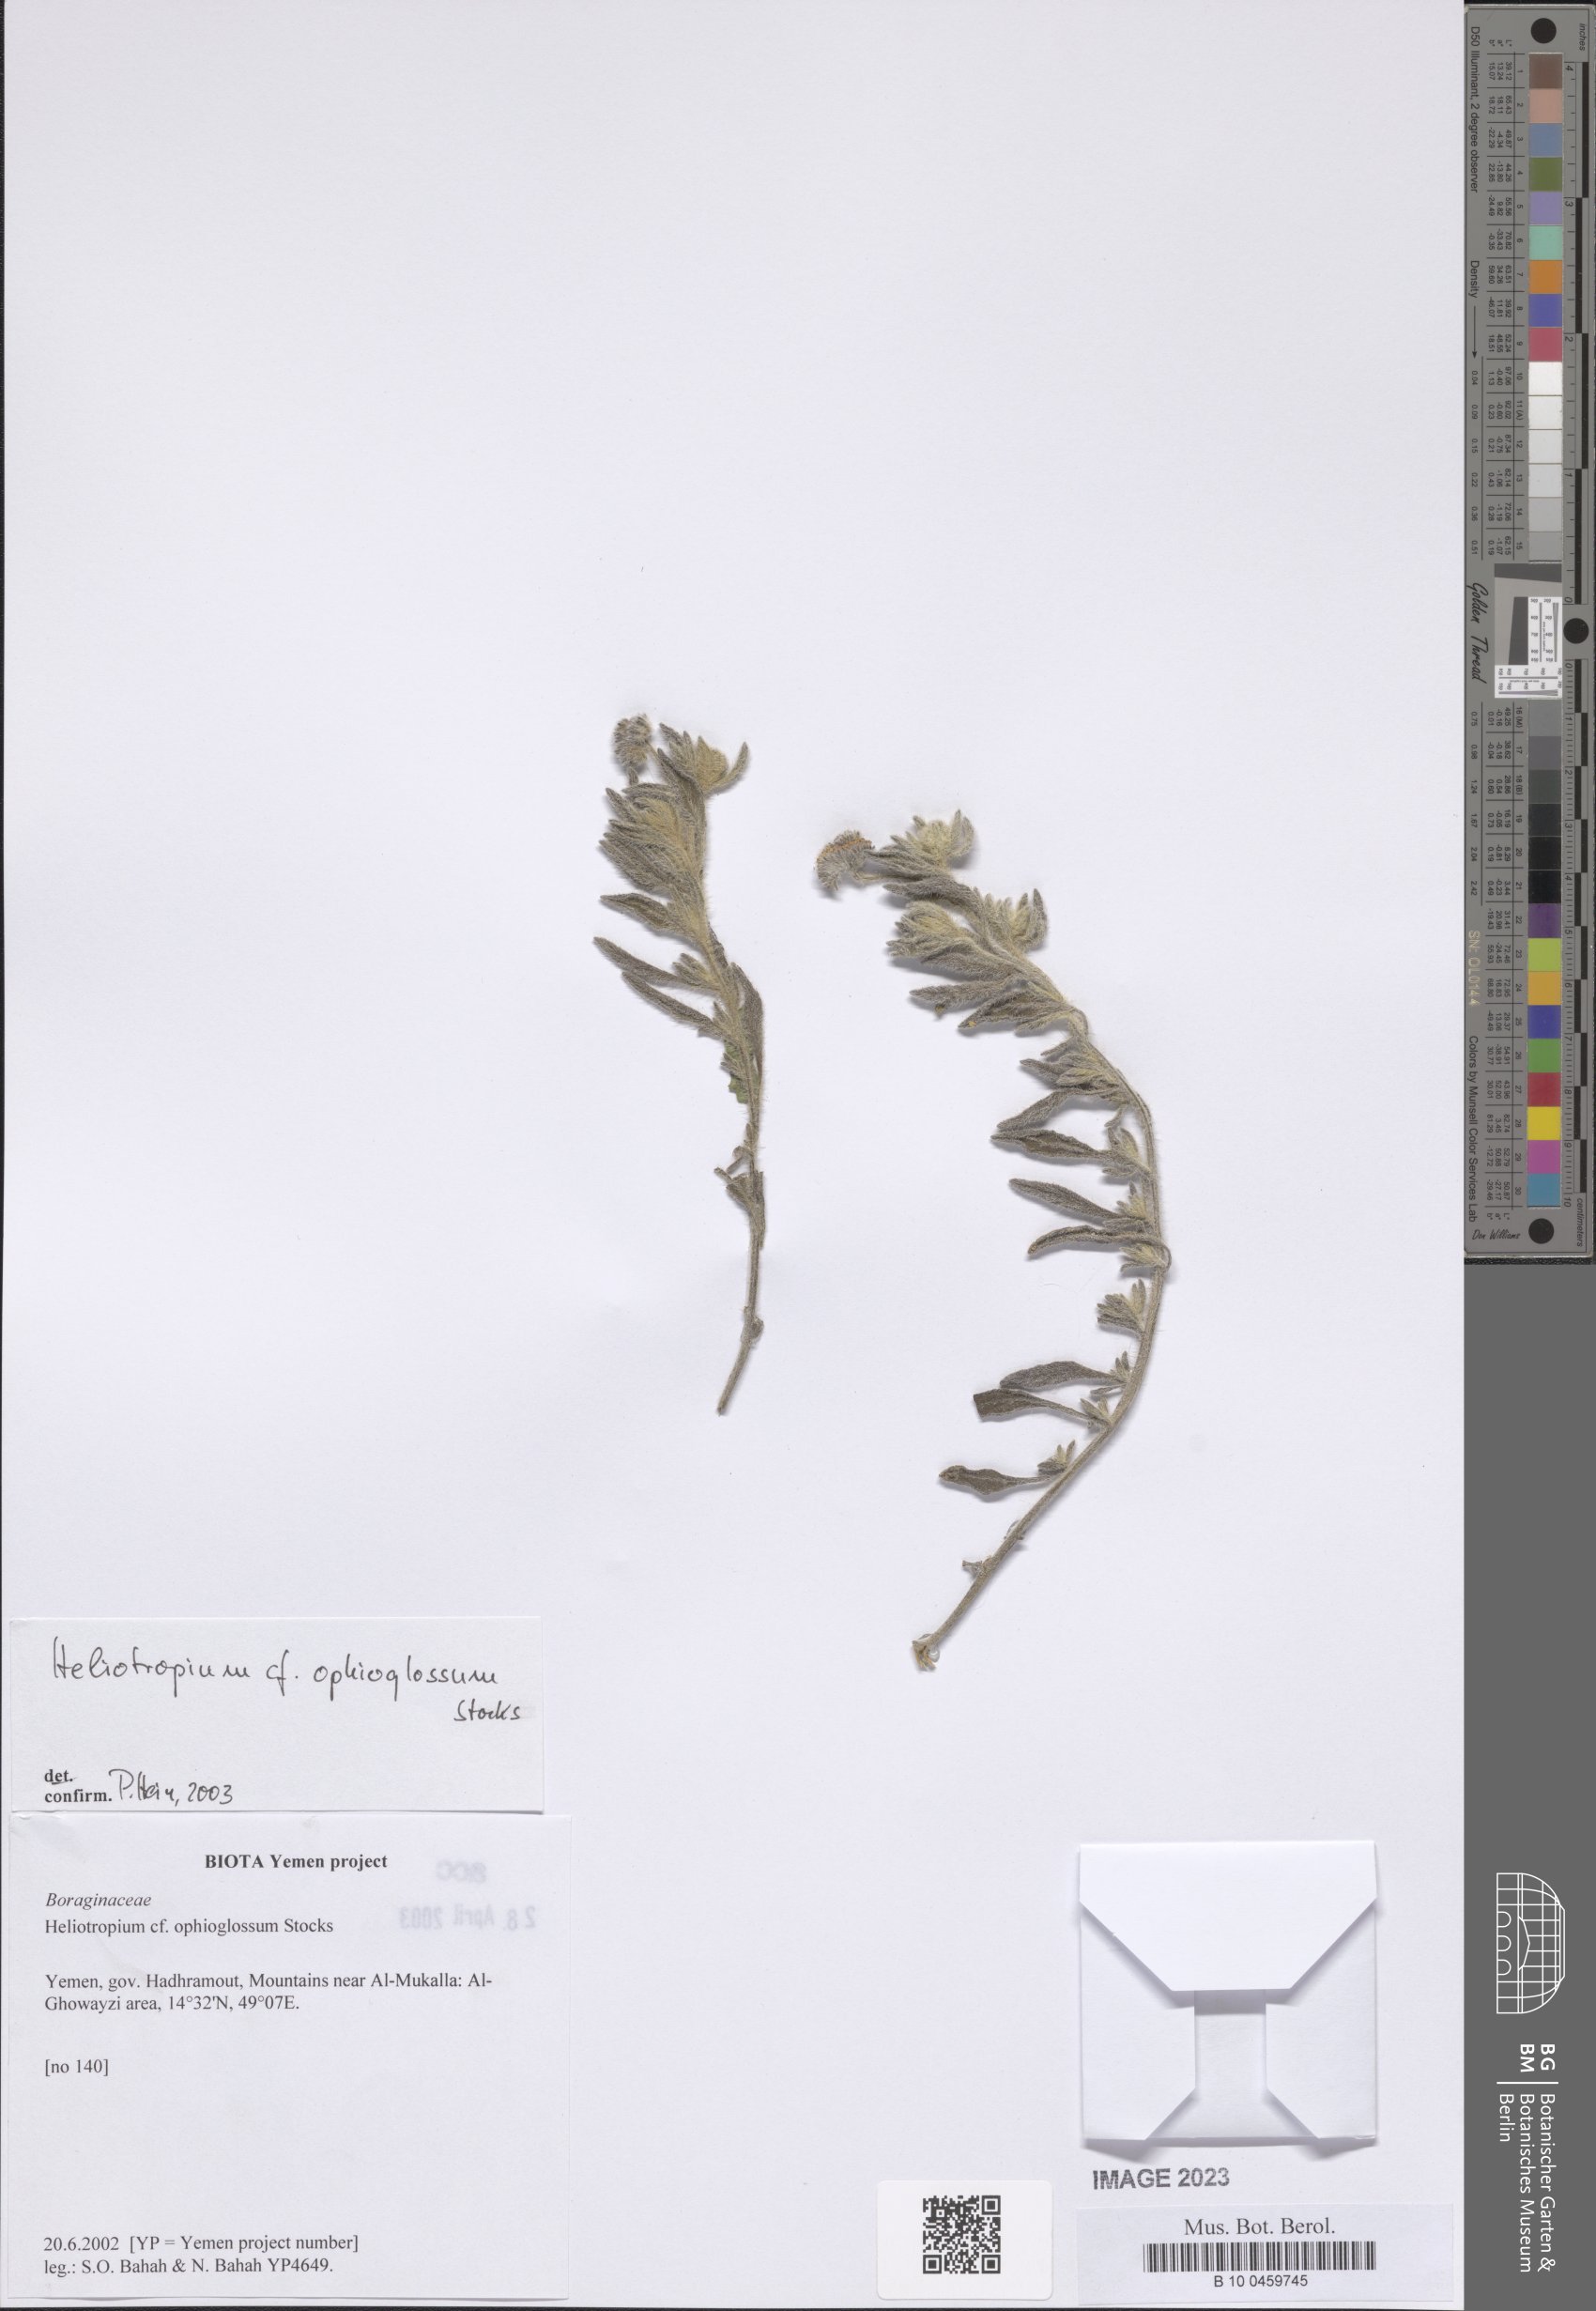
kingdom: Plantae
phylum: Tracheophyta
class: Magnoliopsida
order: Boraginales
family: Heliotropiaceae
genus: Heliotropium
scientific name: Heliotropium ophioglossum
